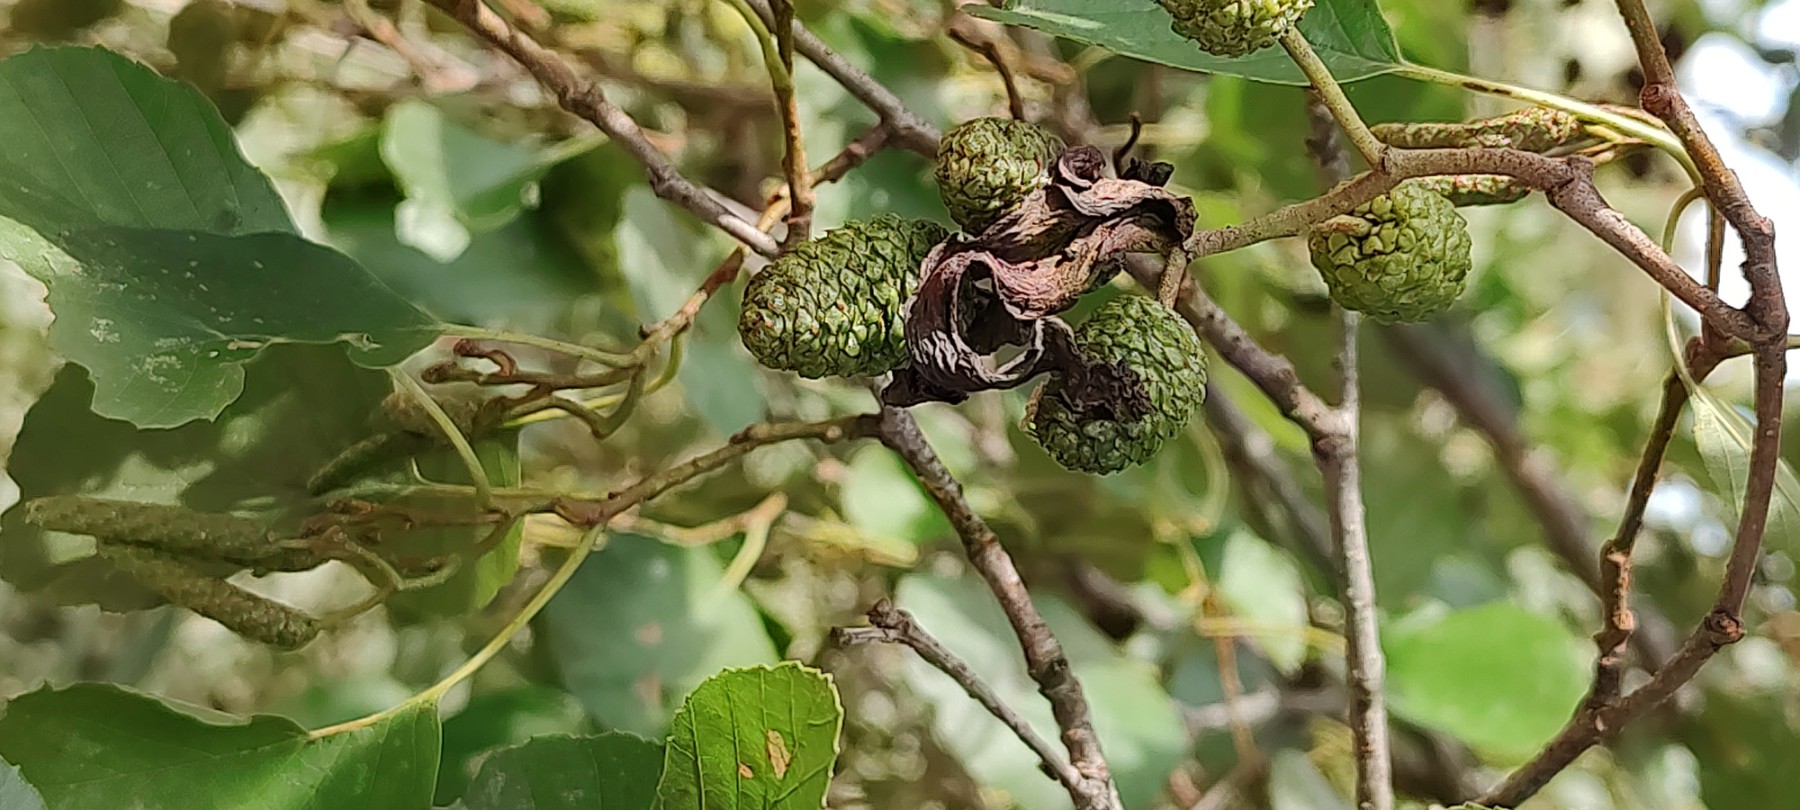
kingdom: Fungi
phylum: Ascomycota
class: Taphrinomycetes
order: Taphrinales
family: Taphrinaceae
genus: Taphrina
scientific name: Taphrina alni
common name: Alder tongue
